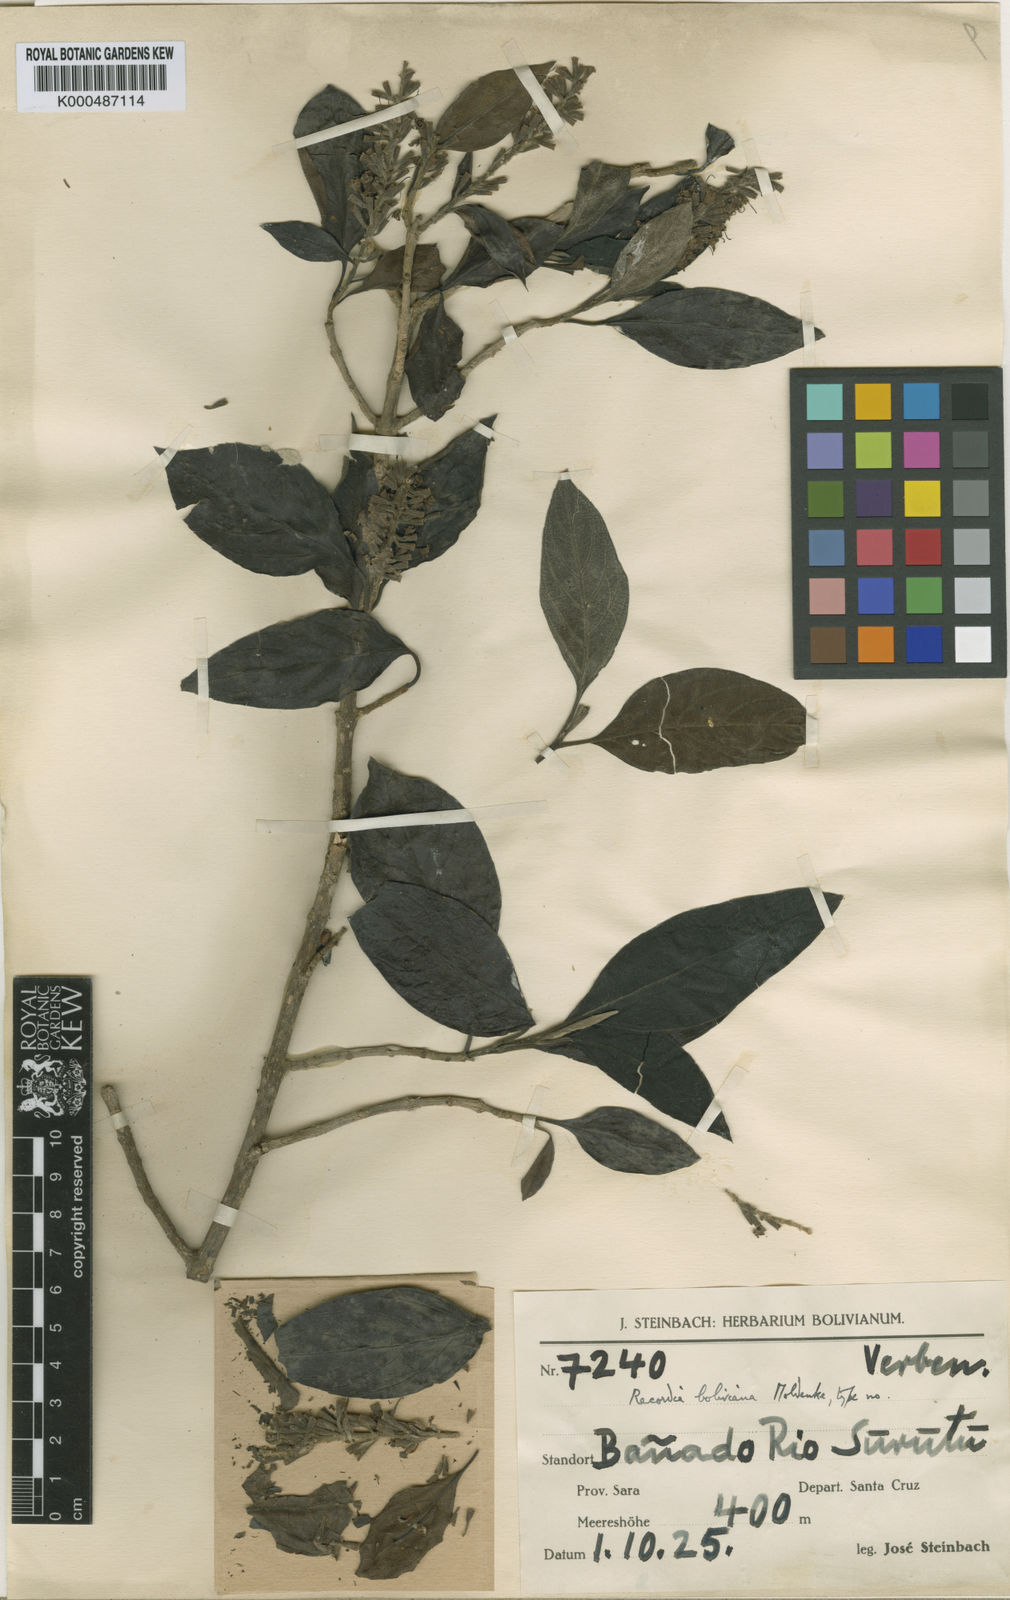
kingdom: Plantae
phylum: Tracheophyta
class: Magnoliopsida
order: Lamiales
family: Verbenaceae
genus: Recordia
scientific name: Recordia boliviana
